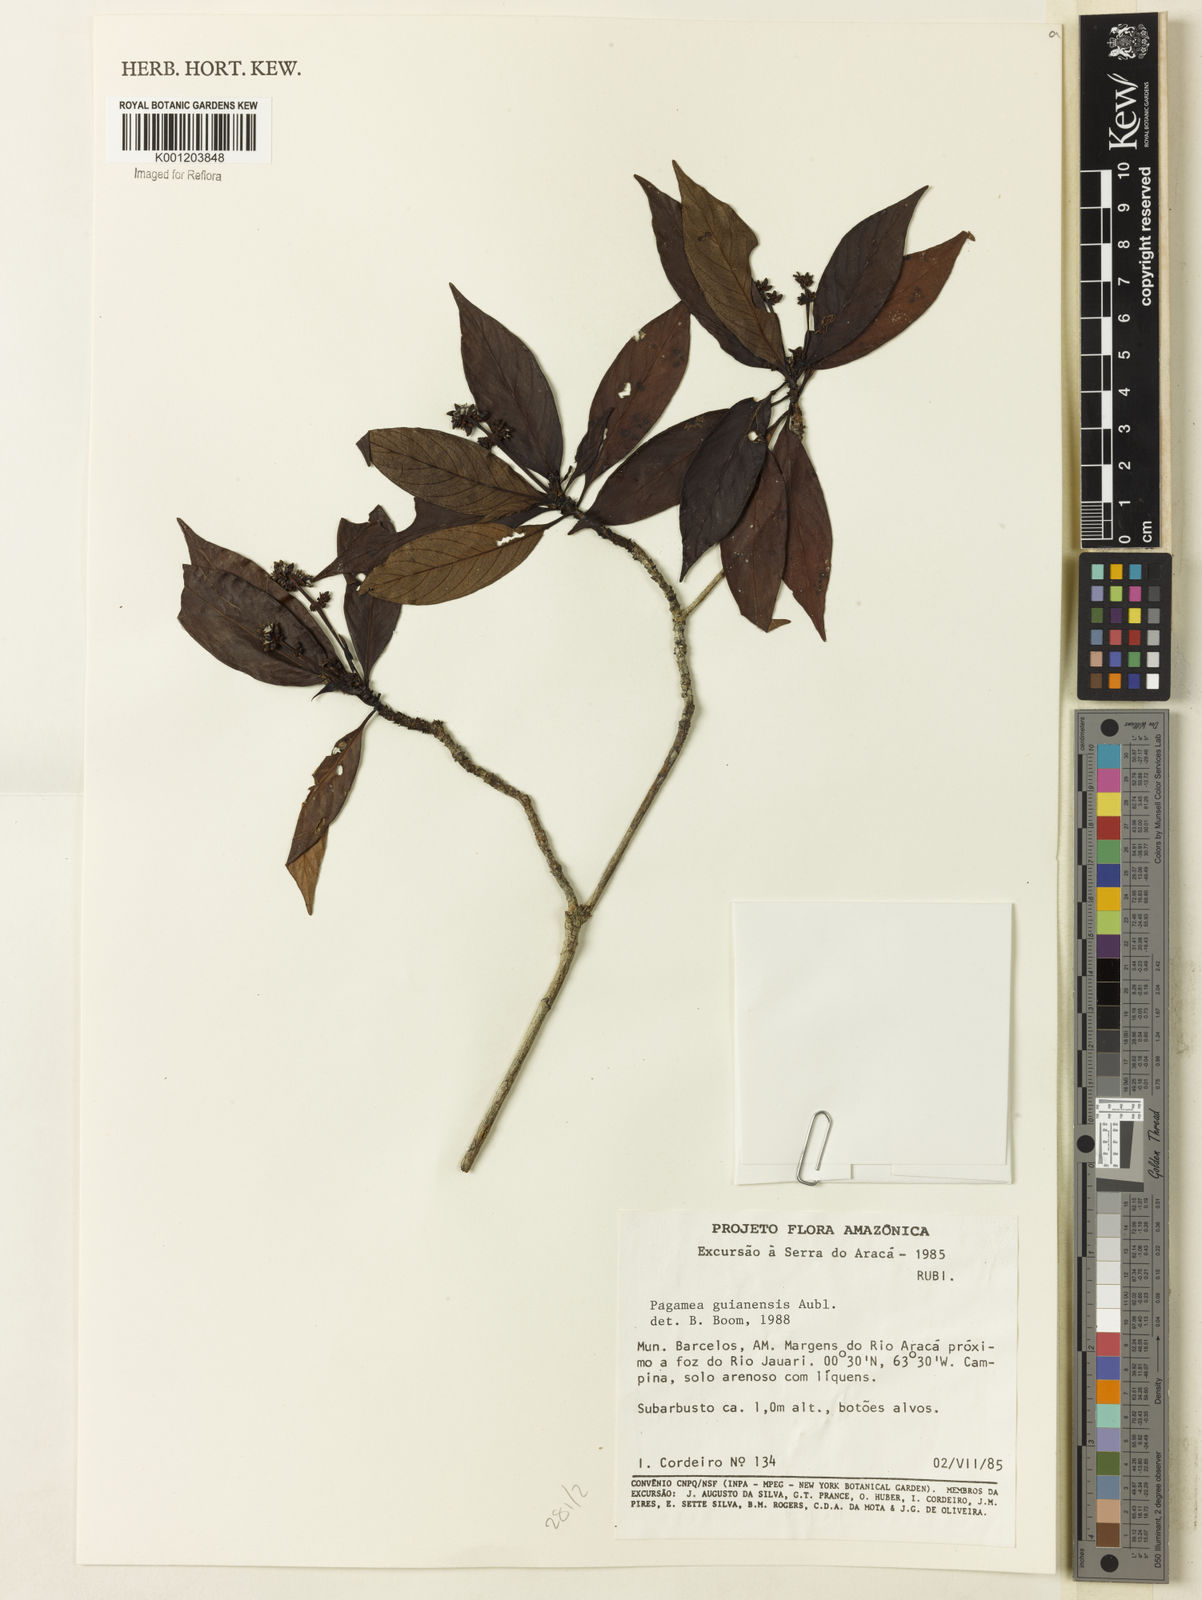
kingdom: Plantae
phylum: Tracheophyta
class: Magnoliopsida
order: Gentianales
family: Rubiaceae
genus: Pagamea
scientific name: Pagamea guianensis
